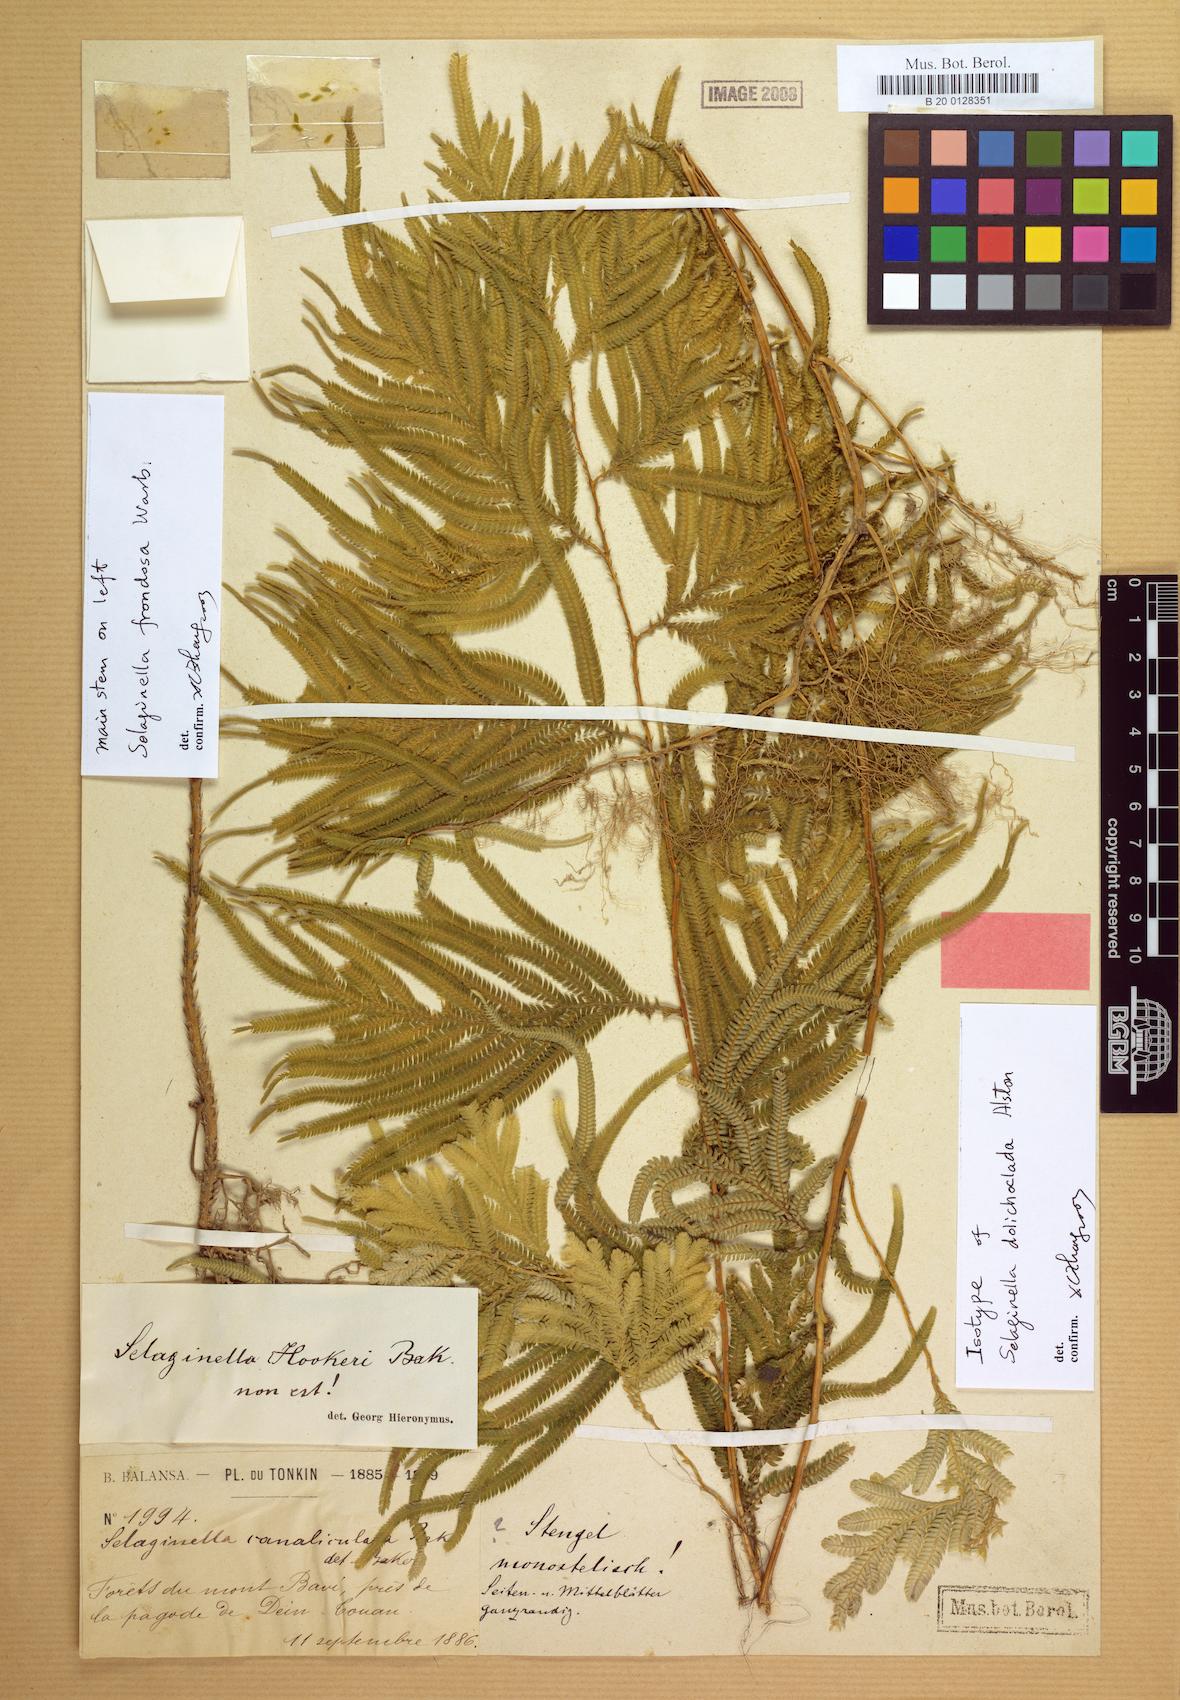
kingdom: Plantae
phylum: Tracheophyta
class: Lycopodiopsida
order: Selaginellales
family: Selaginellaceae
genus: Selaginella
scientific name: Selaginella dolichoclada
